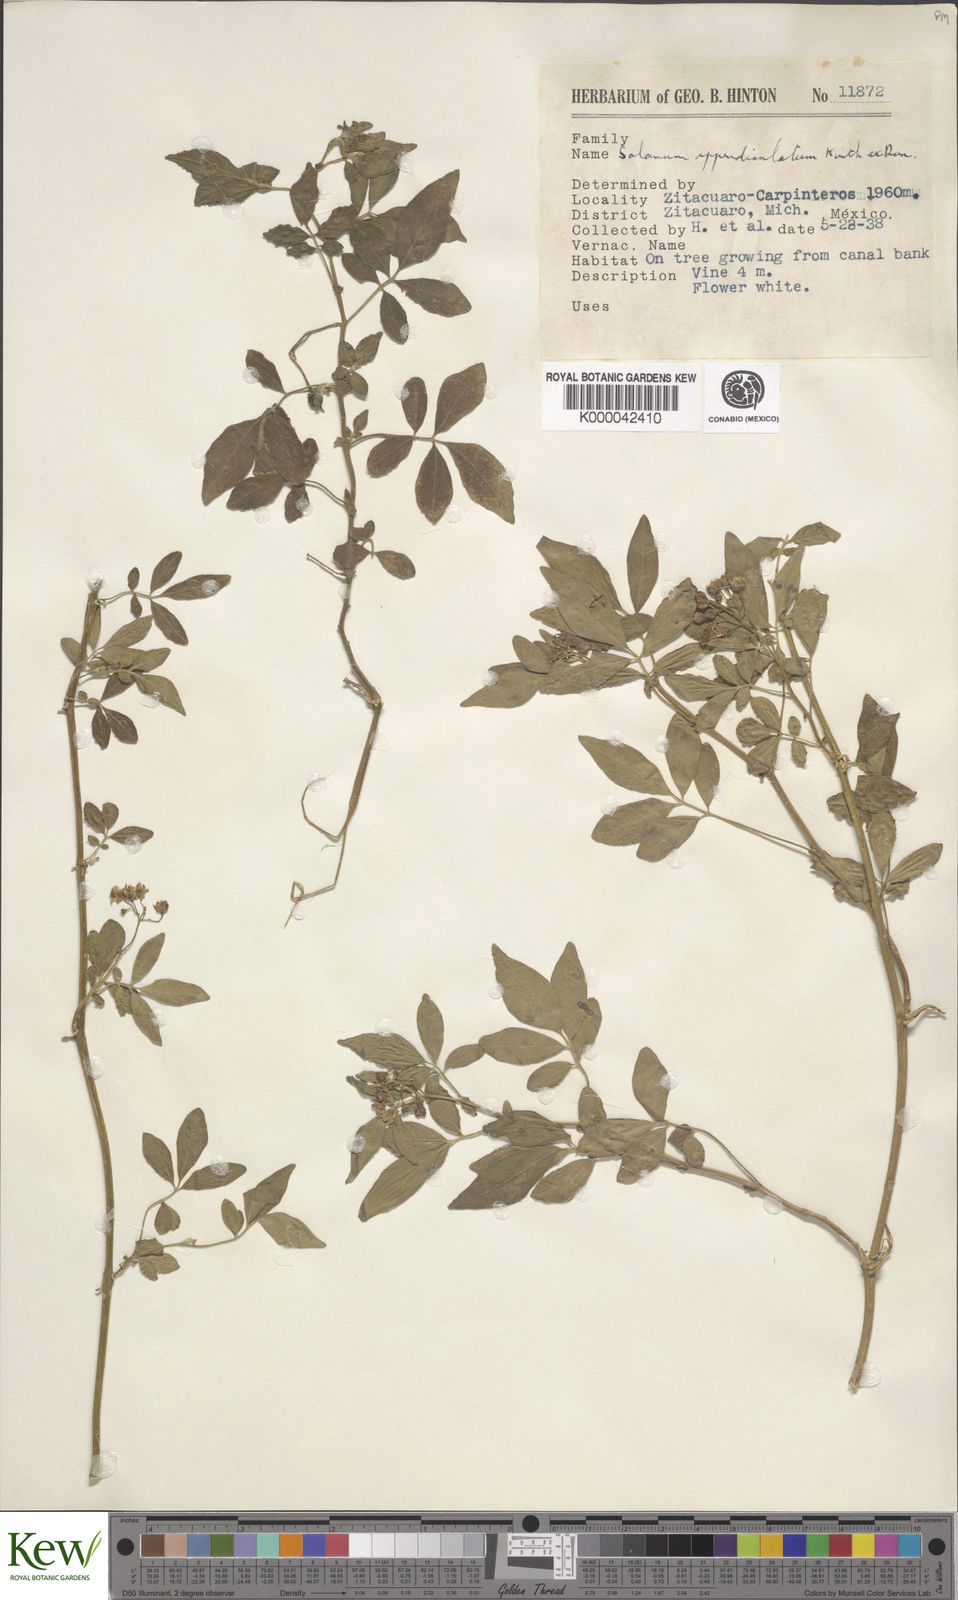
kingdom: Plantae
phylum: Tracheophyta
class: Magnoliopsida
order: Solanales
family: Solanaceae
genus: Solanum
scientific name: Solanum appendiculatum
